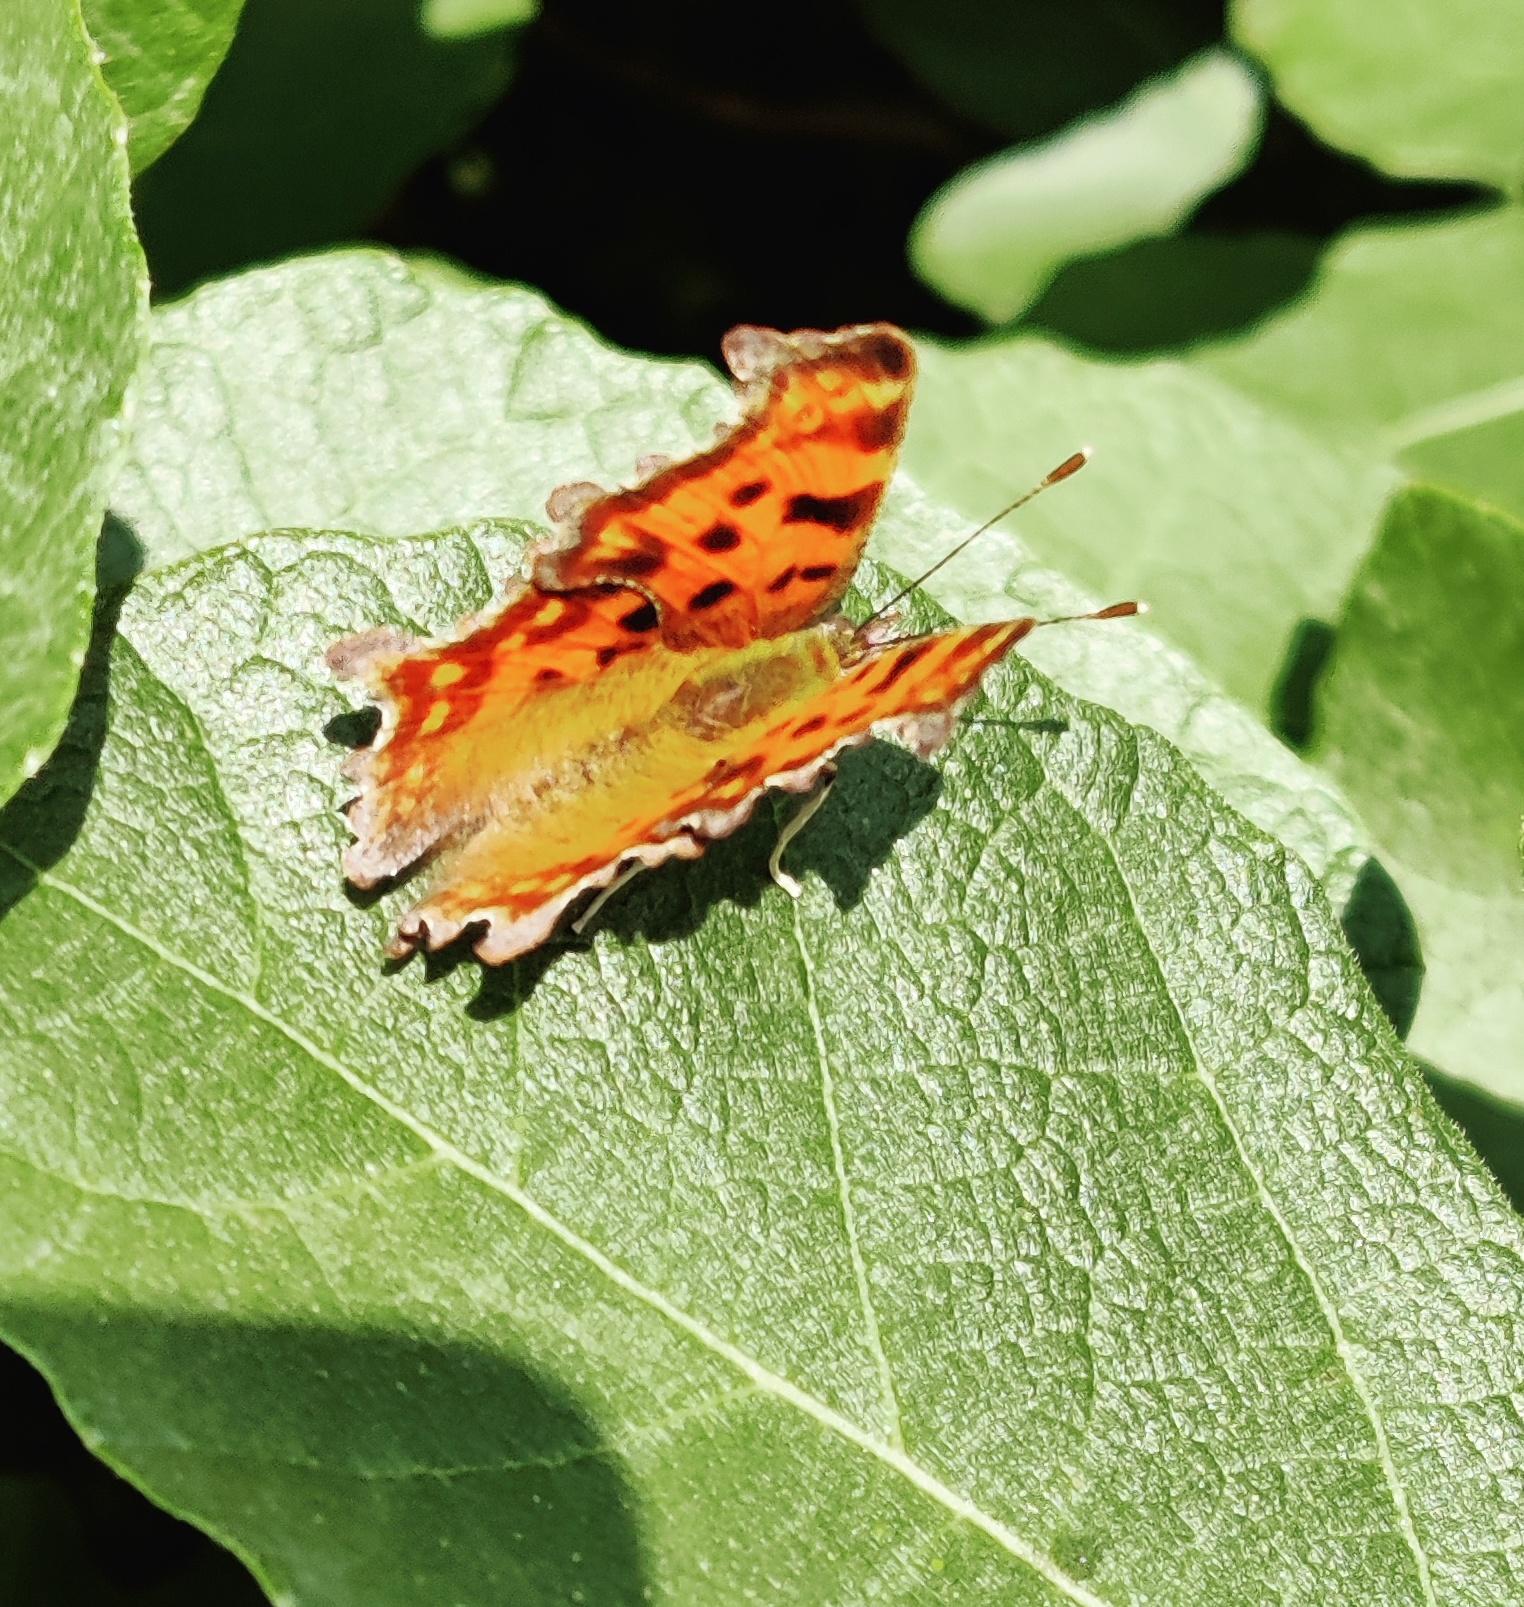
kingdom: Animalia
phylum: Arthropoda
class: Insecta
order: Lepidoptera
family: Nymphalidae
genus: Polygonia
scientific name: Polygonia c-album
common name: Det hvide C
